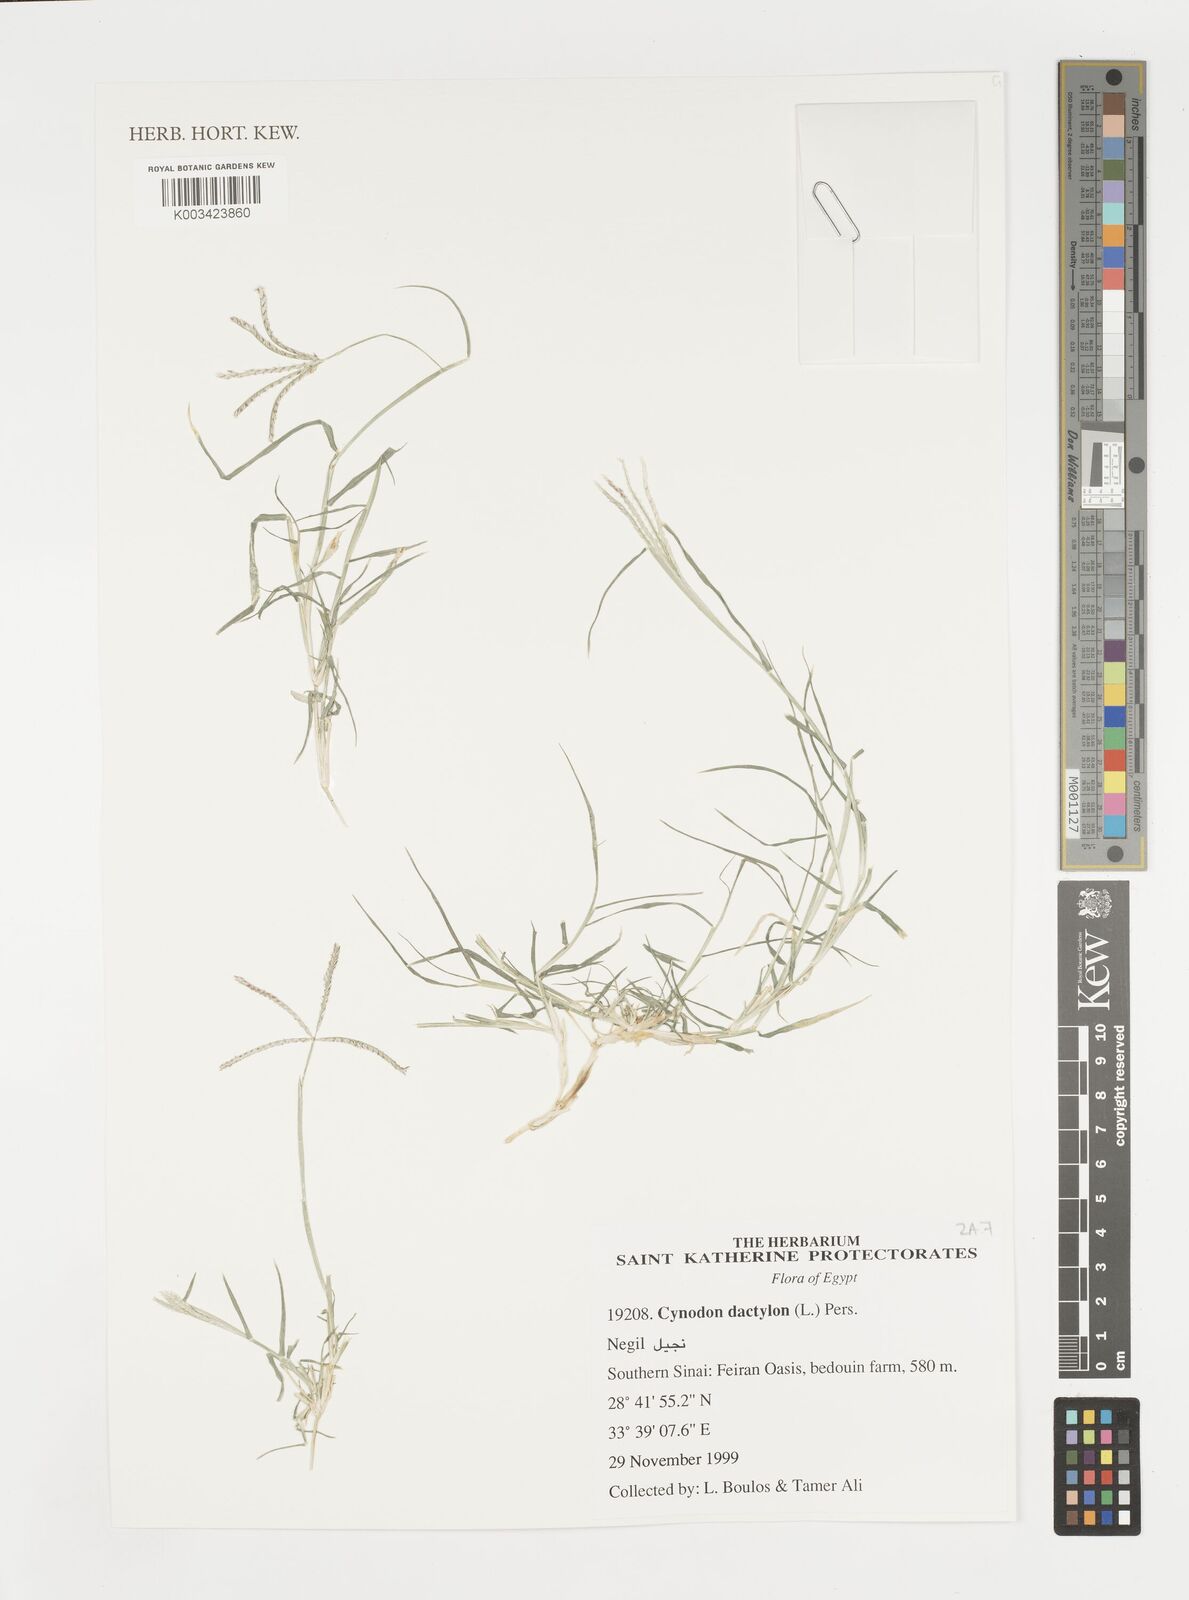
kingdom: Plantae
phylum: Tracheophyta
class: Liliopsida
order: Poales
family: Poaceae
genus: Cynodon
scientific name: Cynodon dactylon
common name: Bermuda grass
